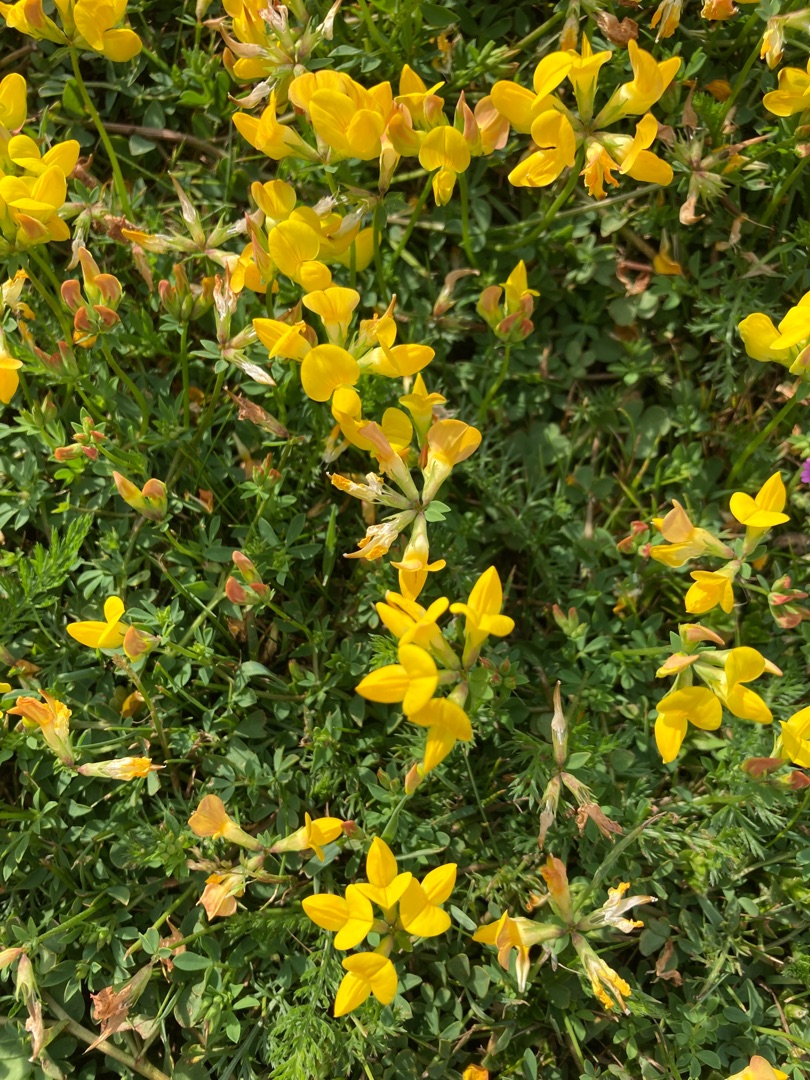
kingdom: Plantae
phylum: Tracheophyta
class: Magnoliopsida
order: Fabales
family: Fabaceae
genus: Lotus
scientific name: Lotus corniculatus
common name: Almindelig kællingetand
